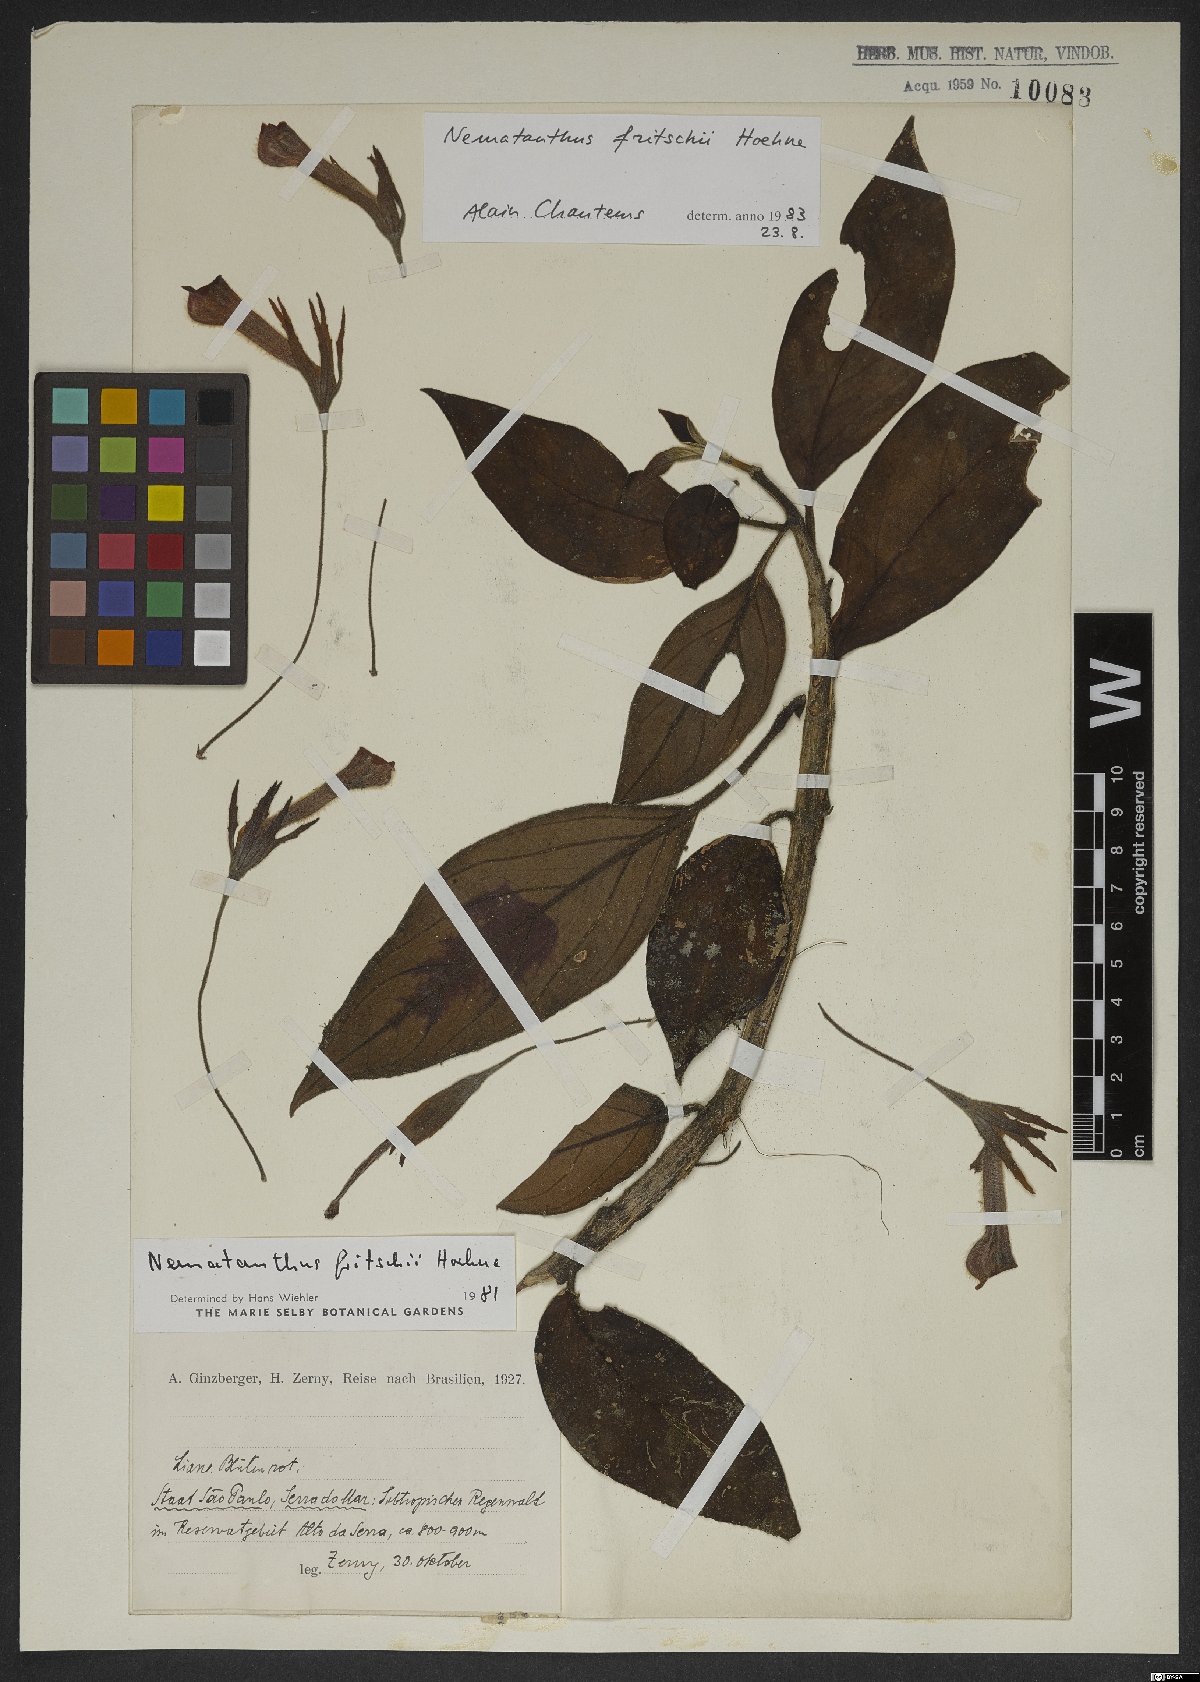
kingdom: Plantae
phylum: Tracheophyta
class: Magnoliopsida
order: Lamiales
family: Gesneriaceae
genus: Nematanthus
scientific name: Nematanthus fritschii
